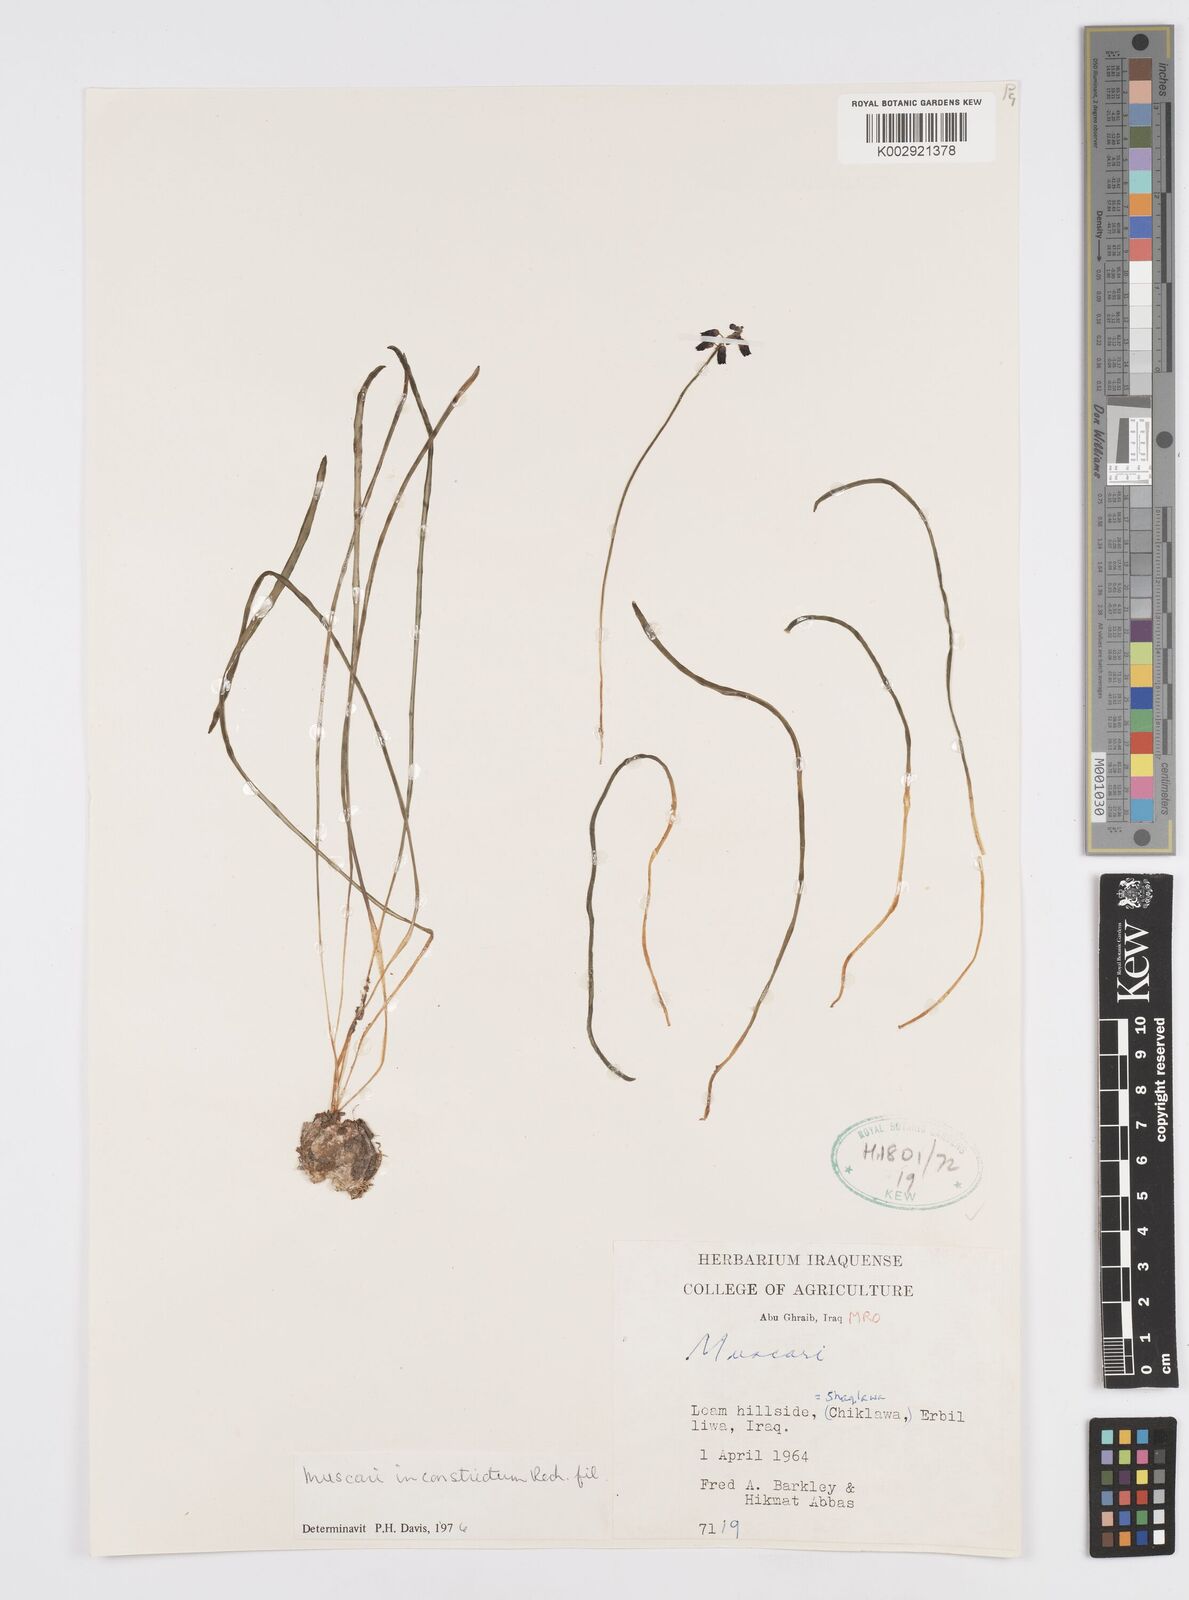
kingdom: Plantae
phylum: Tracheophyta
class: Liliopsida
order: Asparagales
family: Asparagaceae
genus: Muscari
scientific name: Muscari inconstrictum
